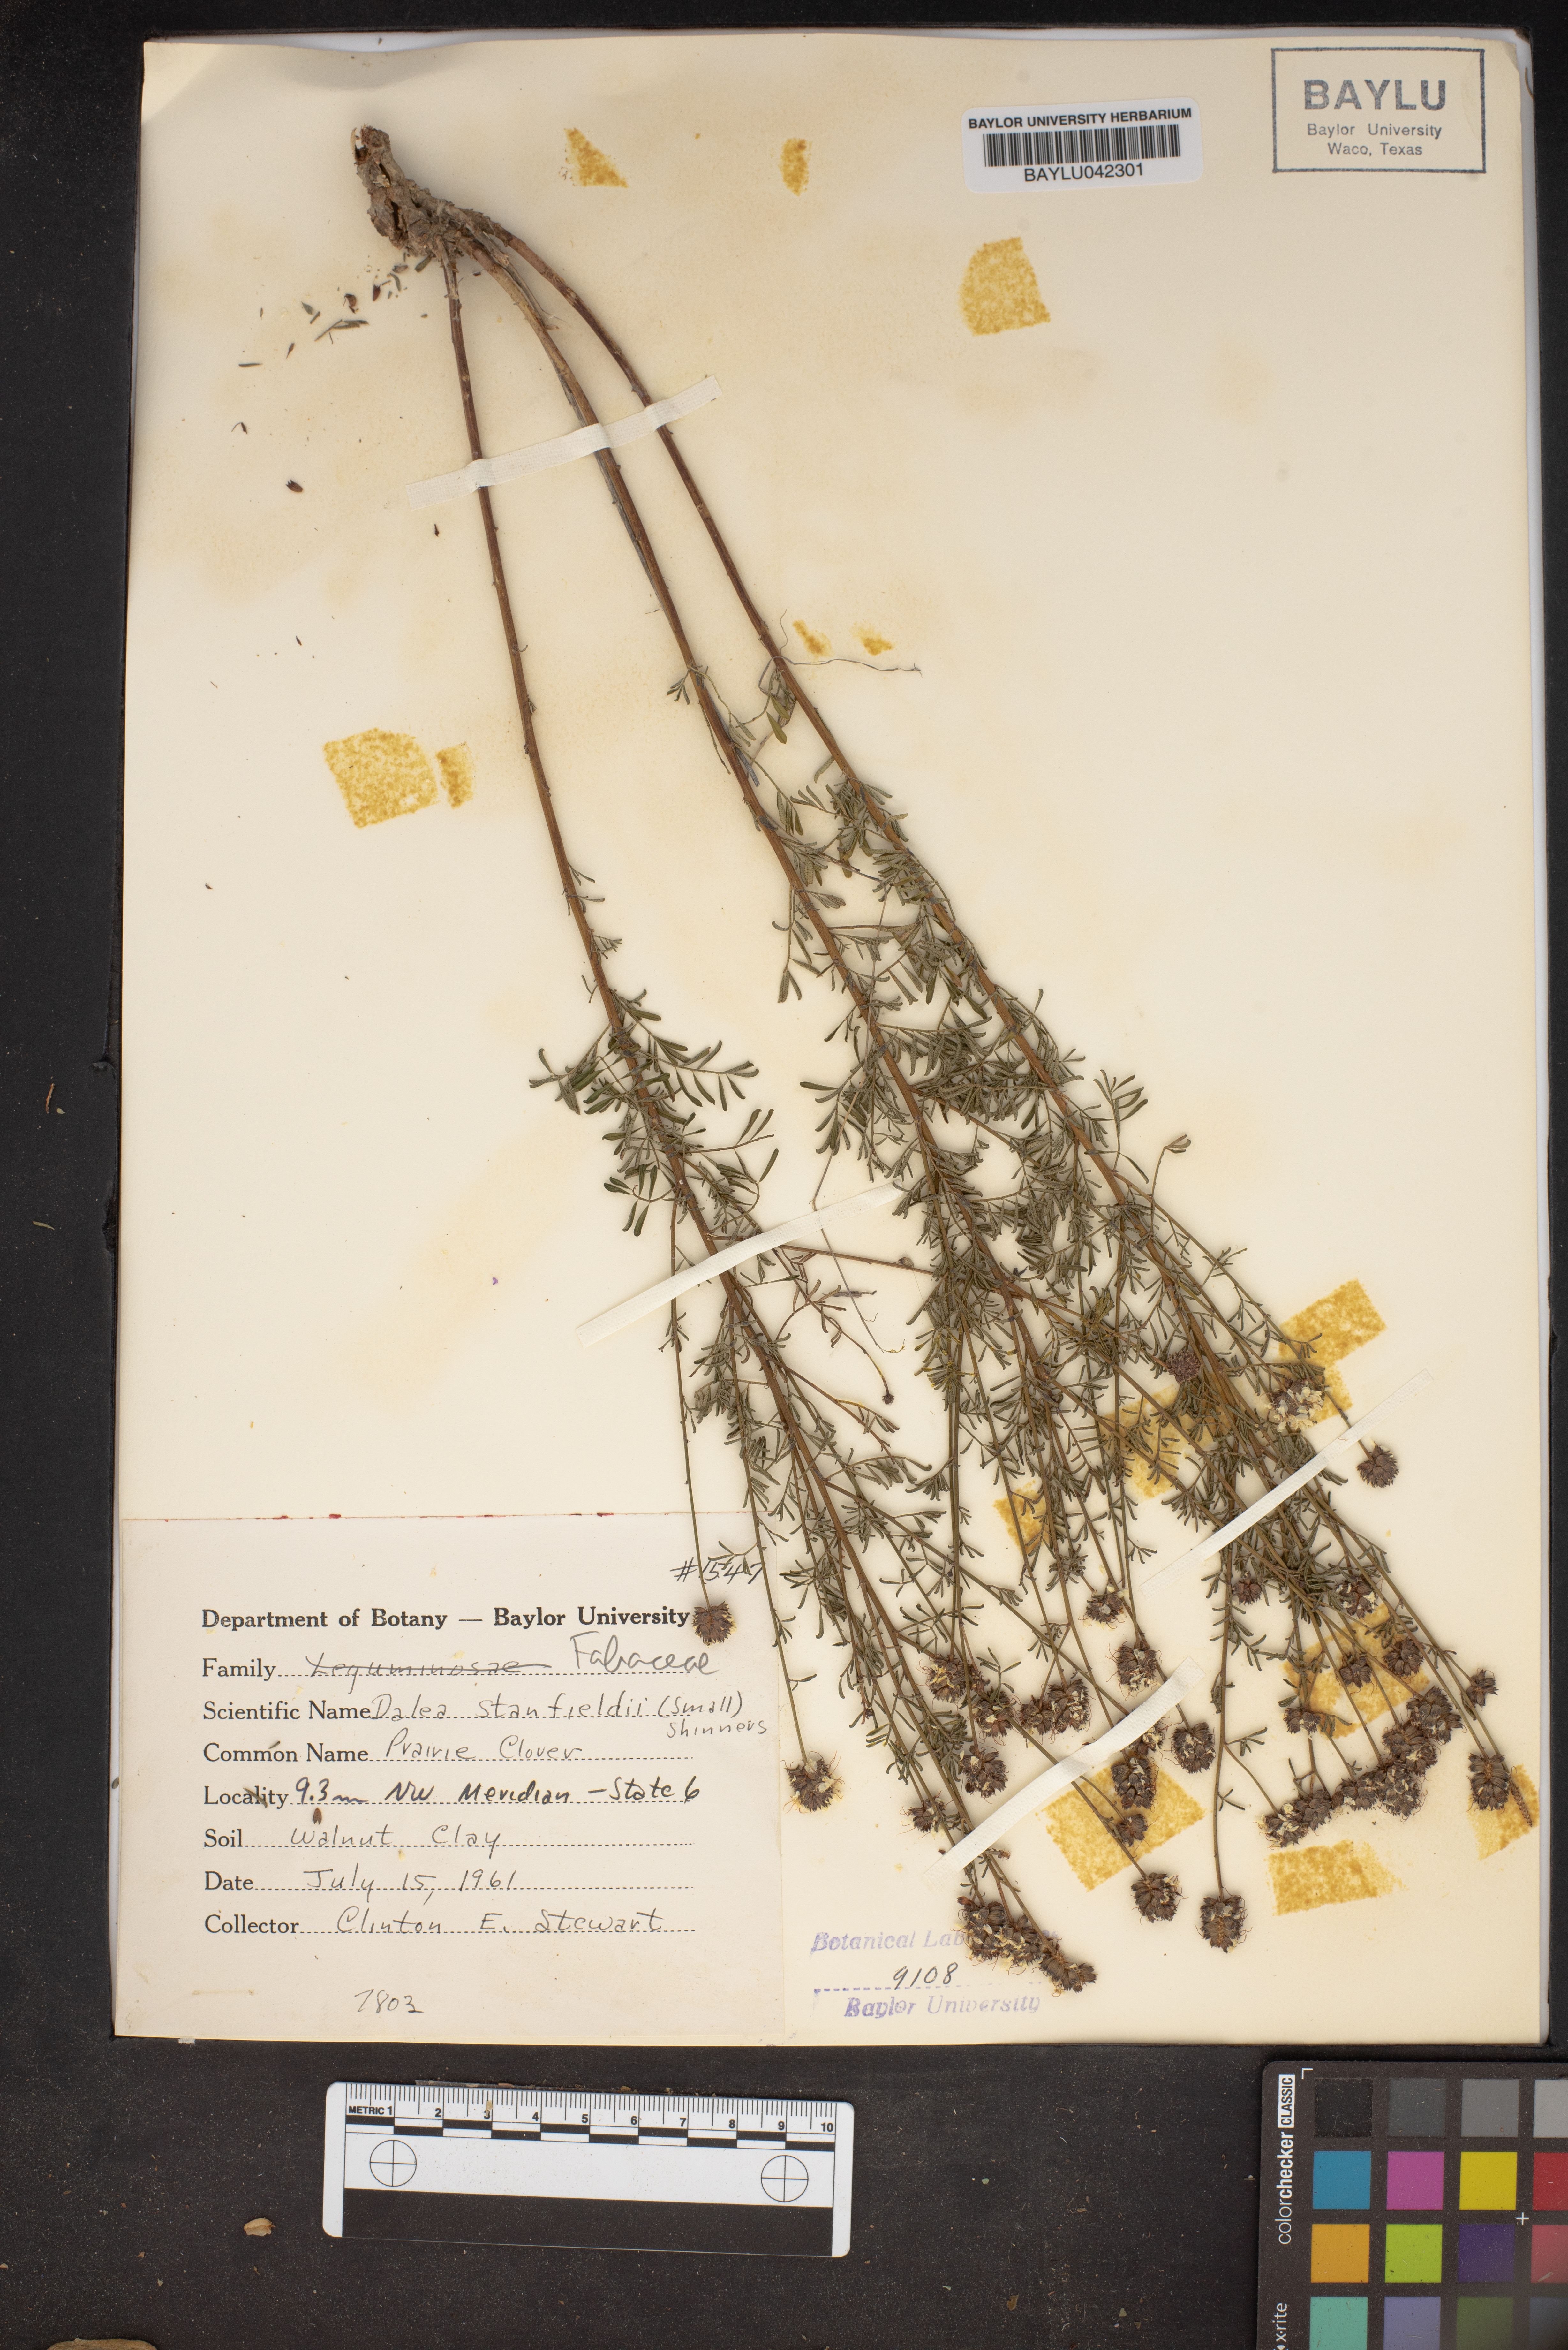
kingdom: Plantae
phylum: Tracheophyta
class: Magnoliopsida
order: Fabales
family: Fabaceae
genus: Dalea
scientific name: Dalea tenuis
